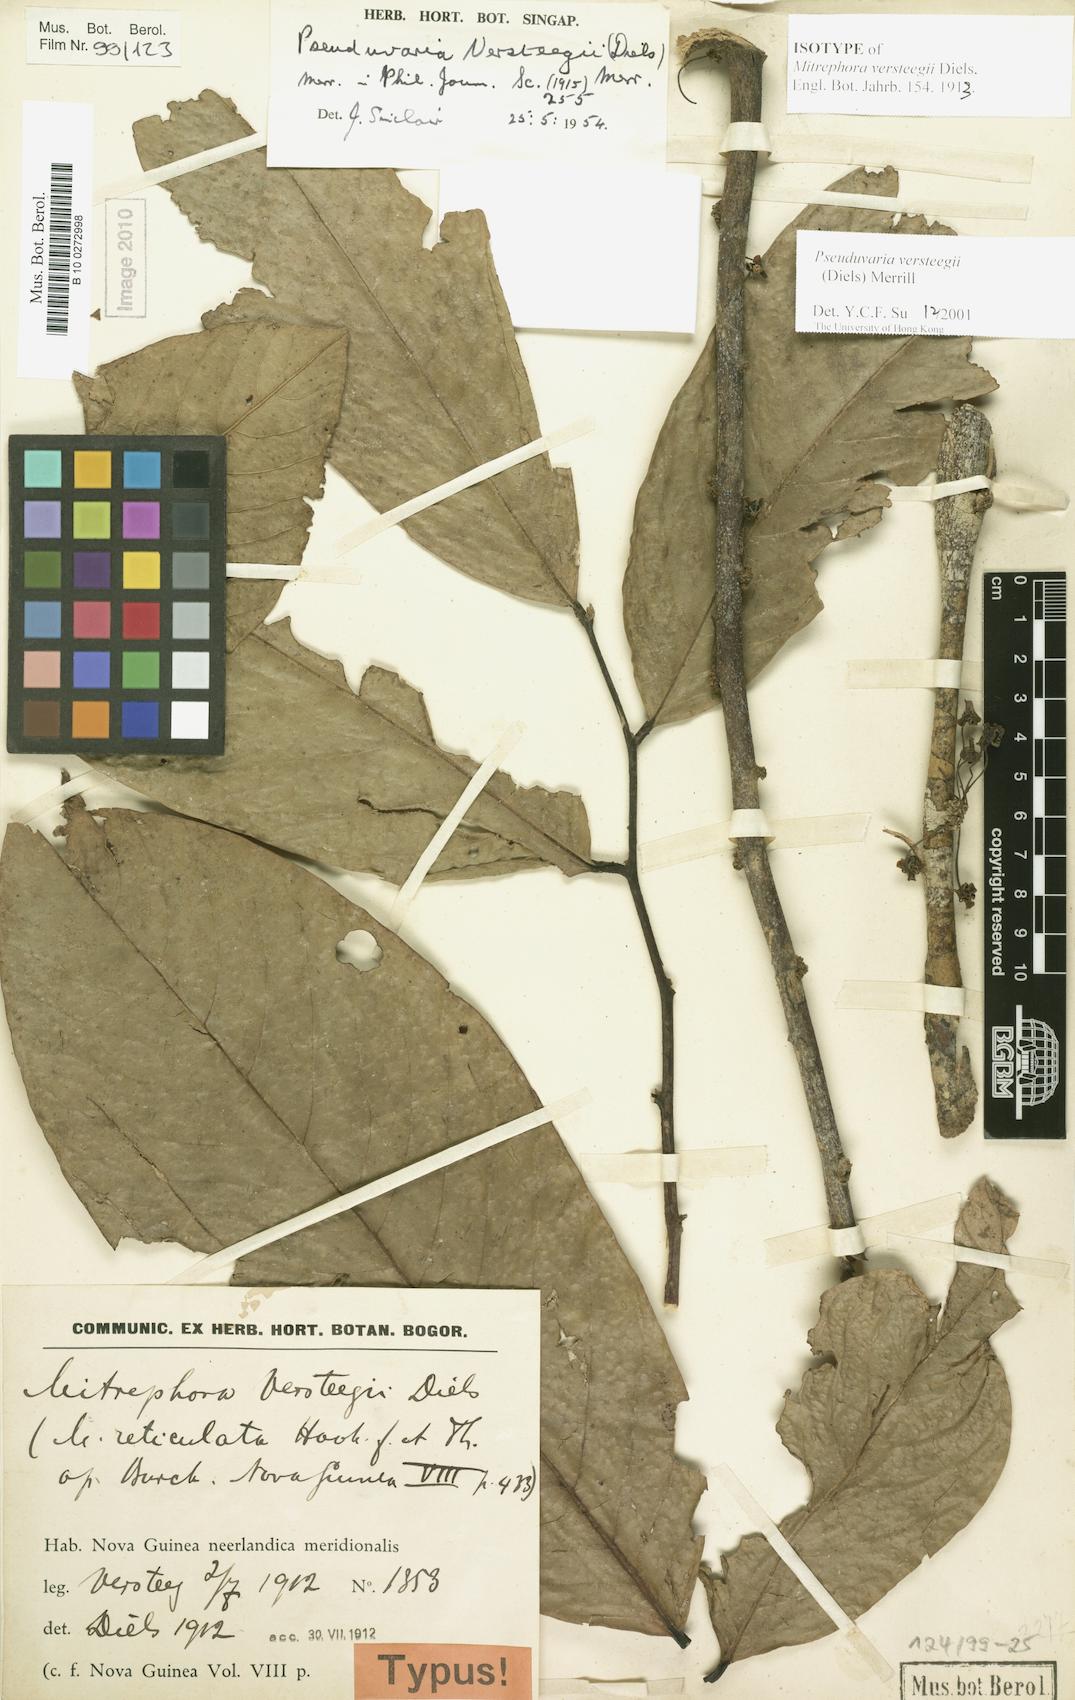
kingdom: Plantae
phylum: Tracheophyta
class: Magnoliopsida
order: Magnoliales
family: Annonaceae
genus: Pseuduvaria
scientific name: Pseuduvaria macrocarpa
